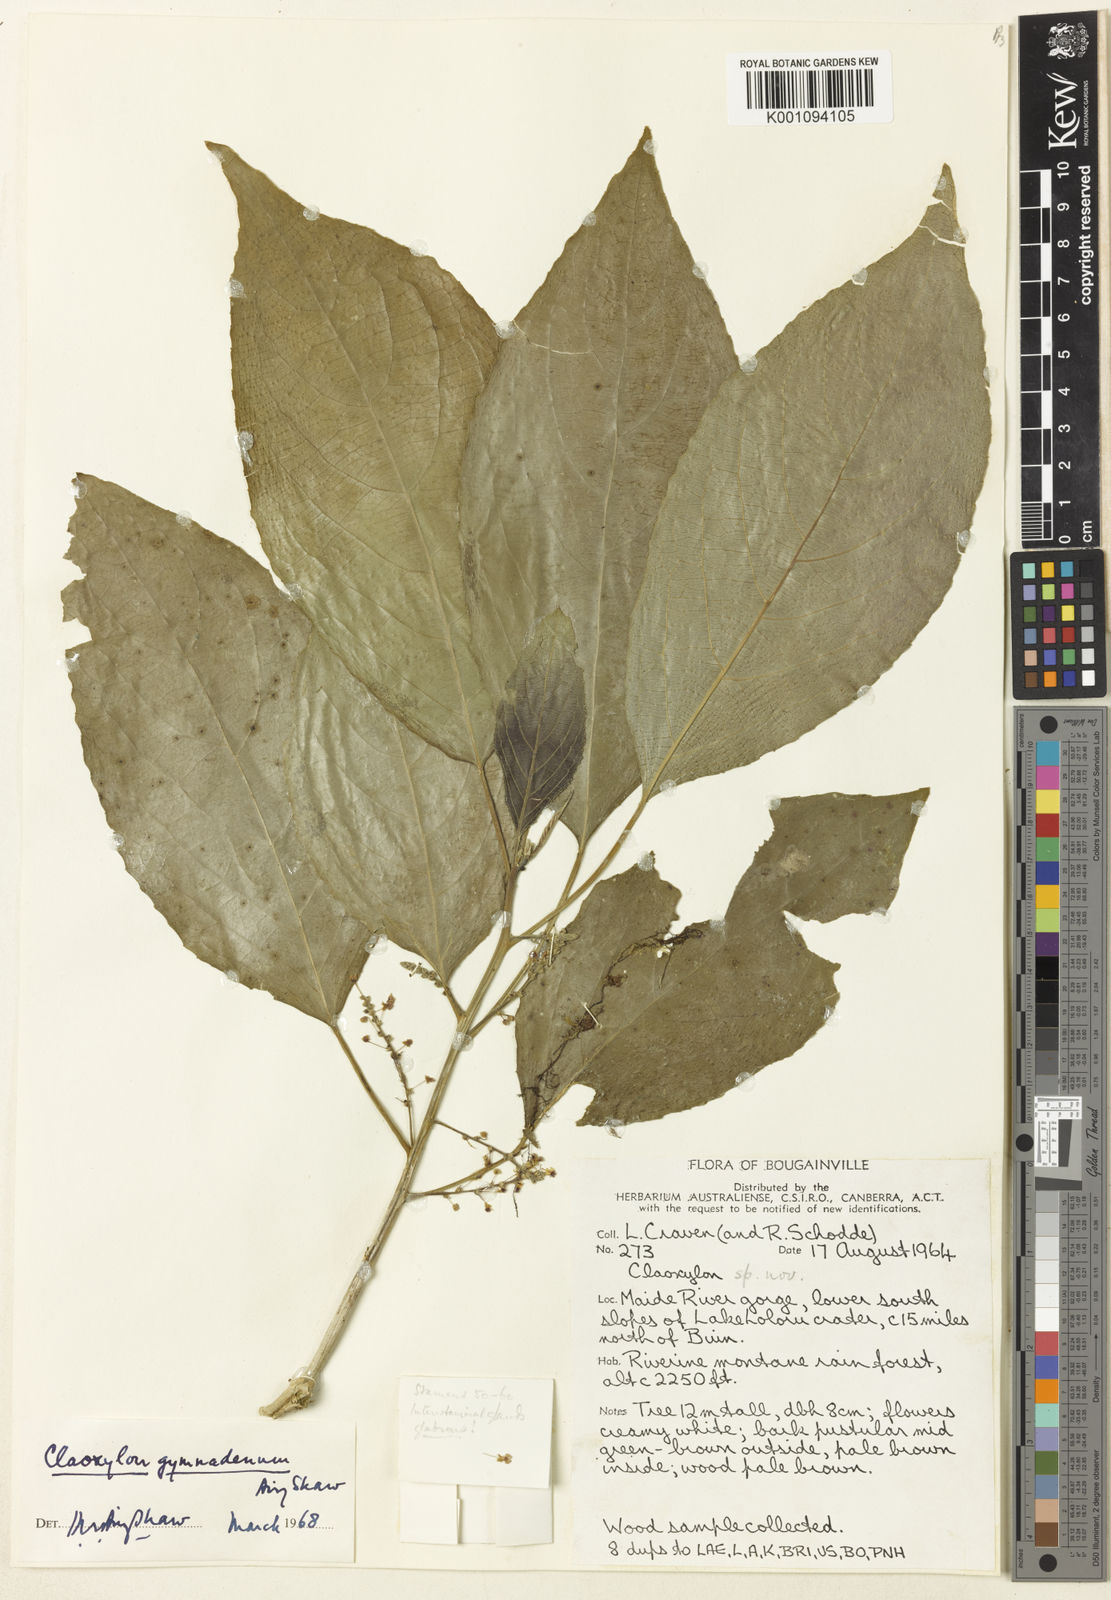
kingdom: Plantae
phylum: Tracheophyta
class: Magnoliopsida
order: Malpighiales
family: Euphorbiaceae
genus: Claoxylon
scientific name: Claoxylon gymnadenum
